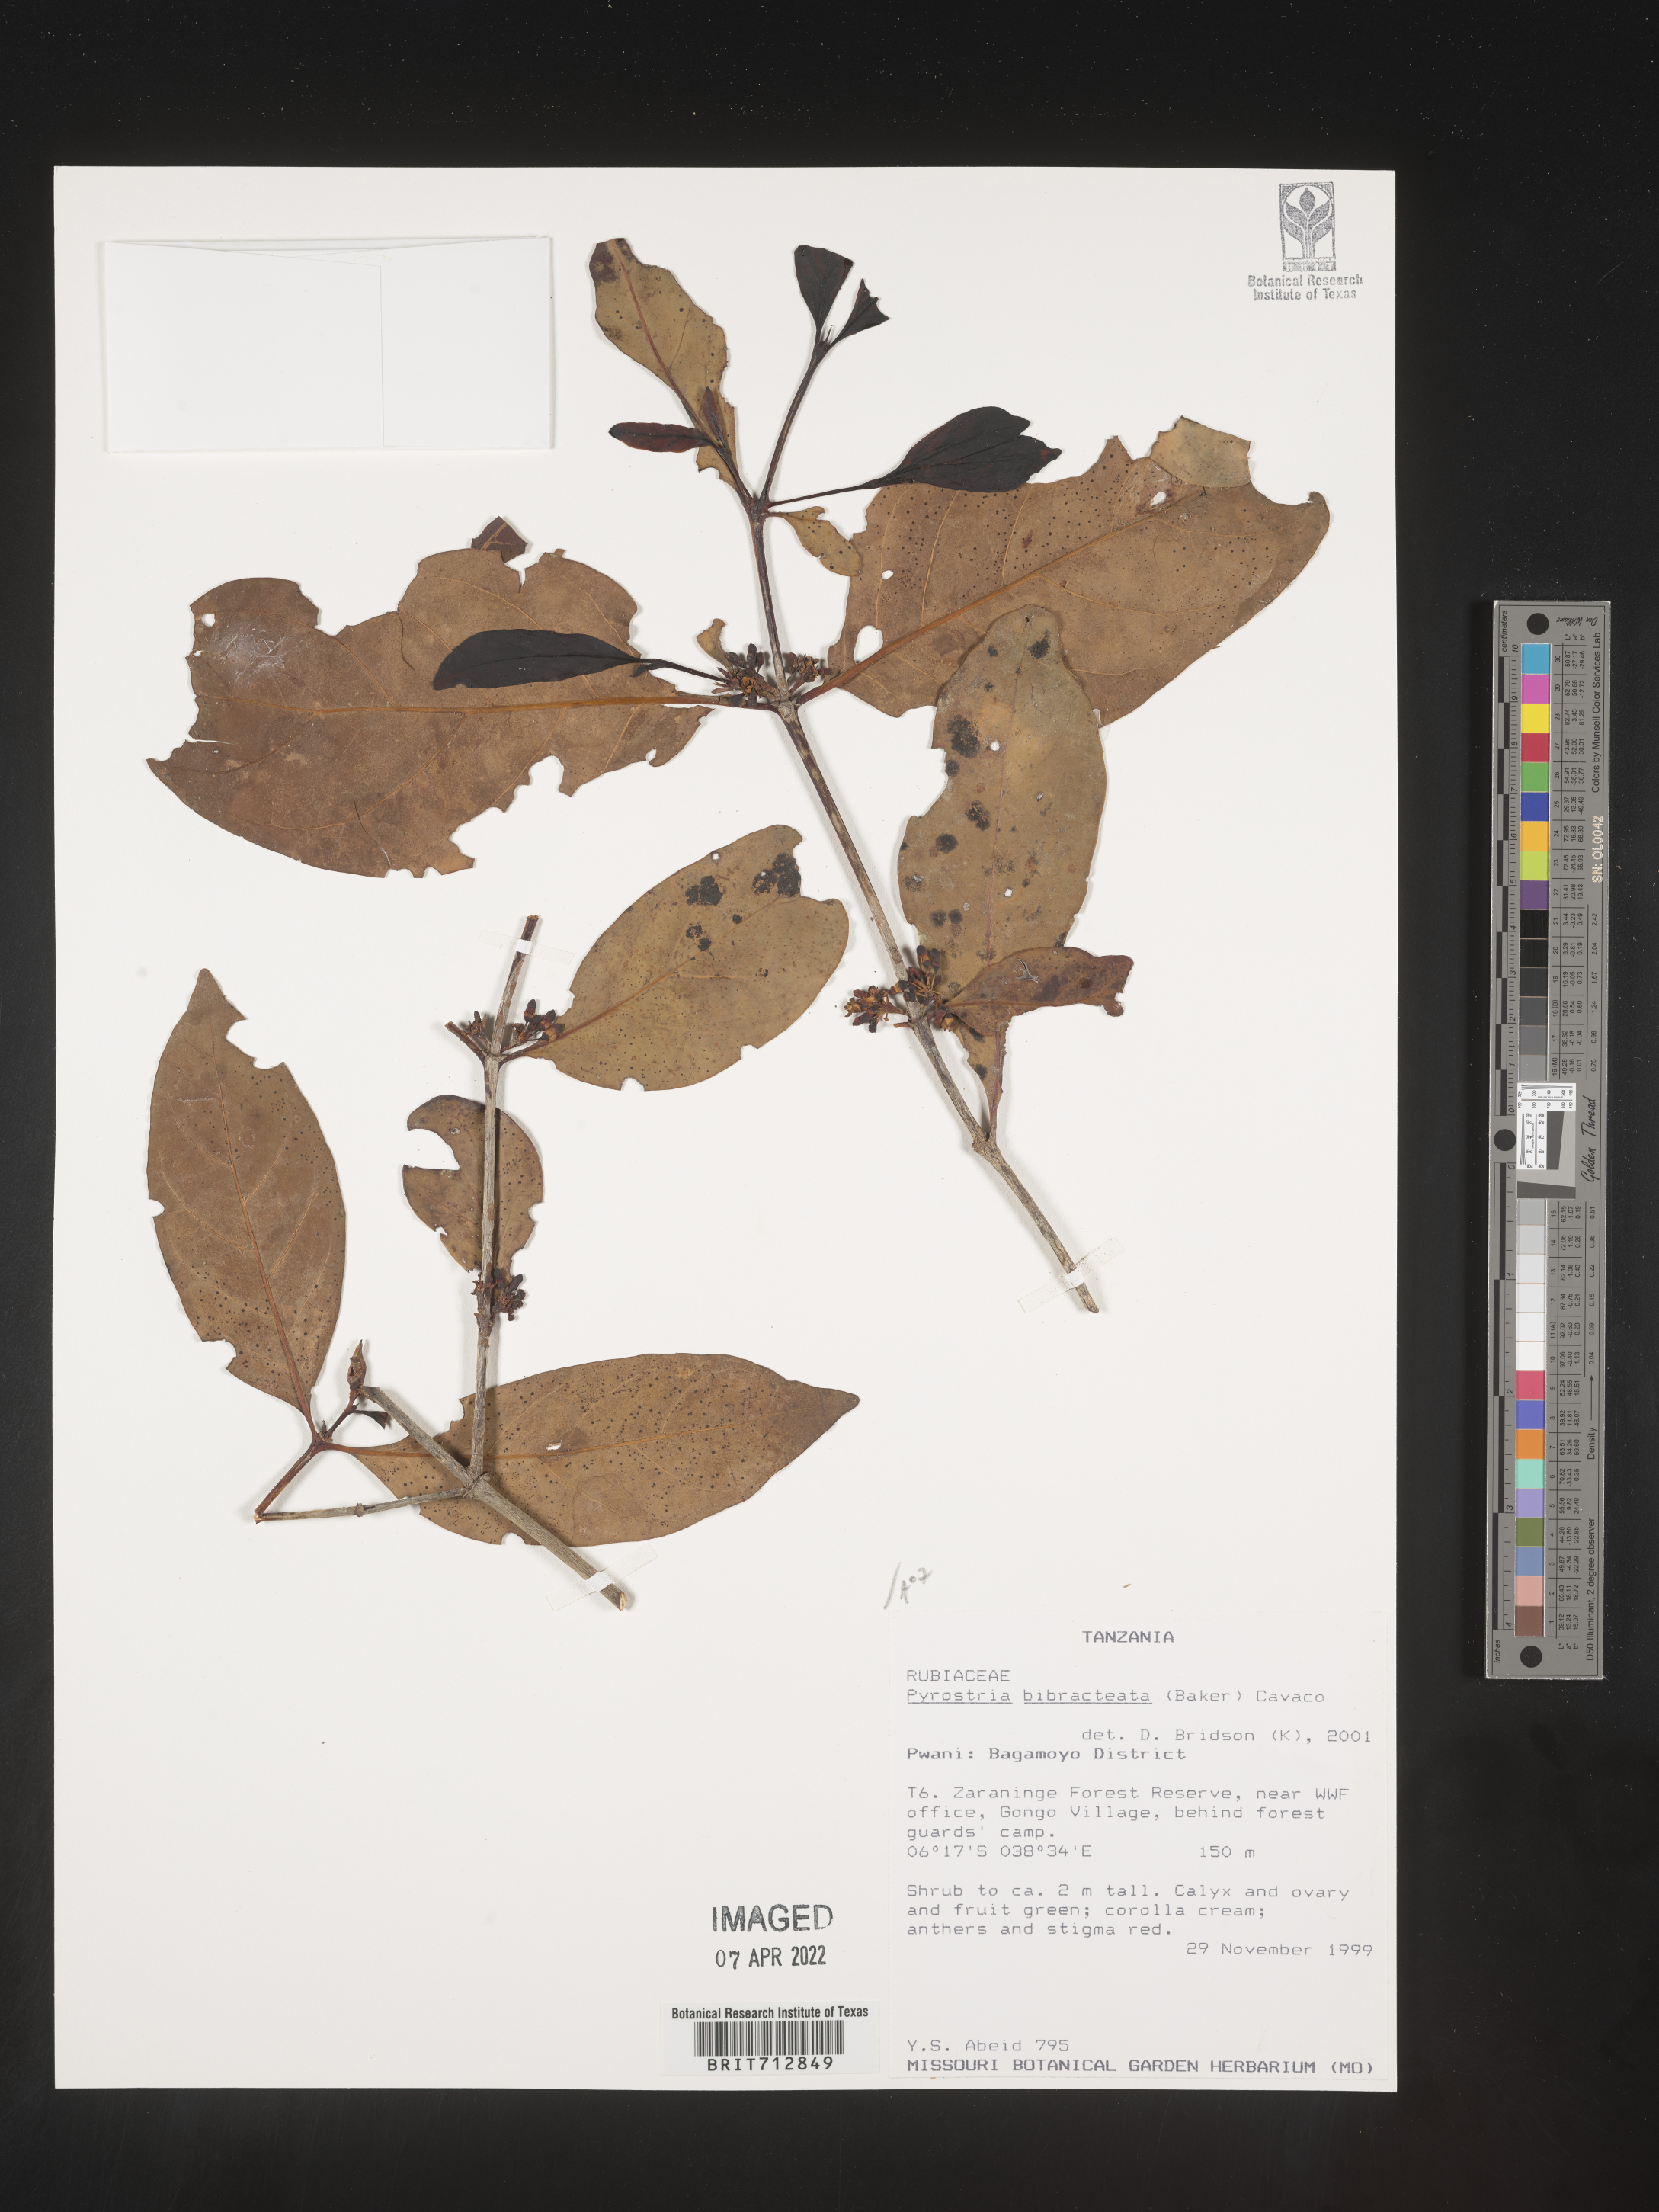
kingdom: Plantae
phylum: Tracheophyta
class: Magnoliopsida
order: Gentianales
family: Rubiaceae
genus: Pyrostria
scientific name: Pyrostria
